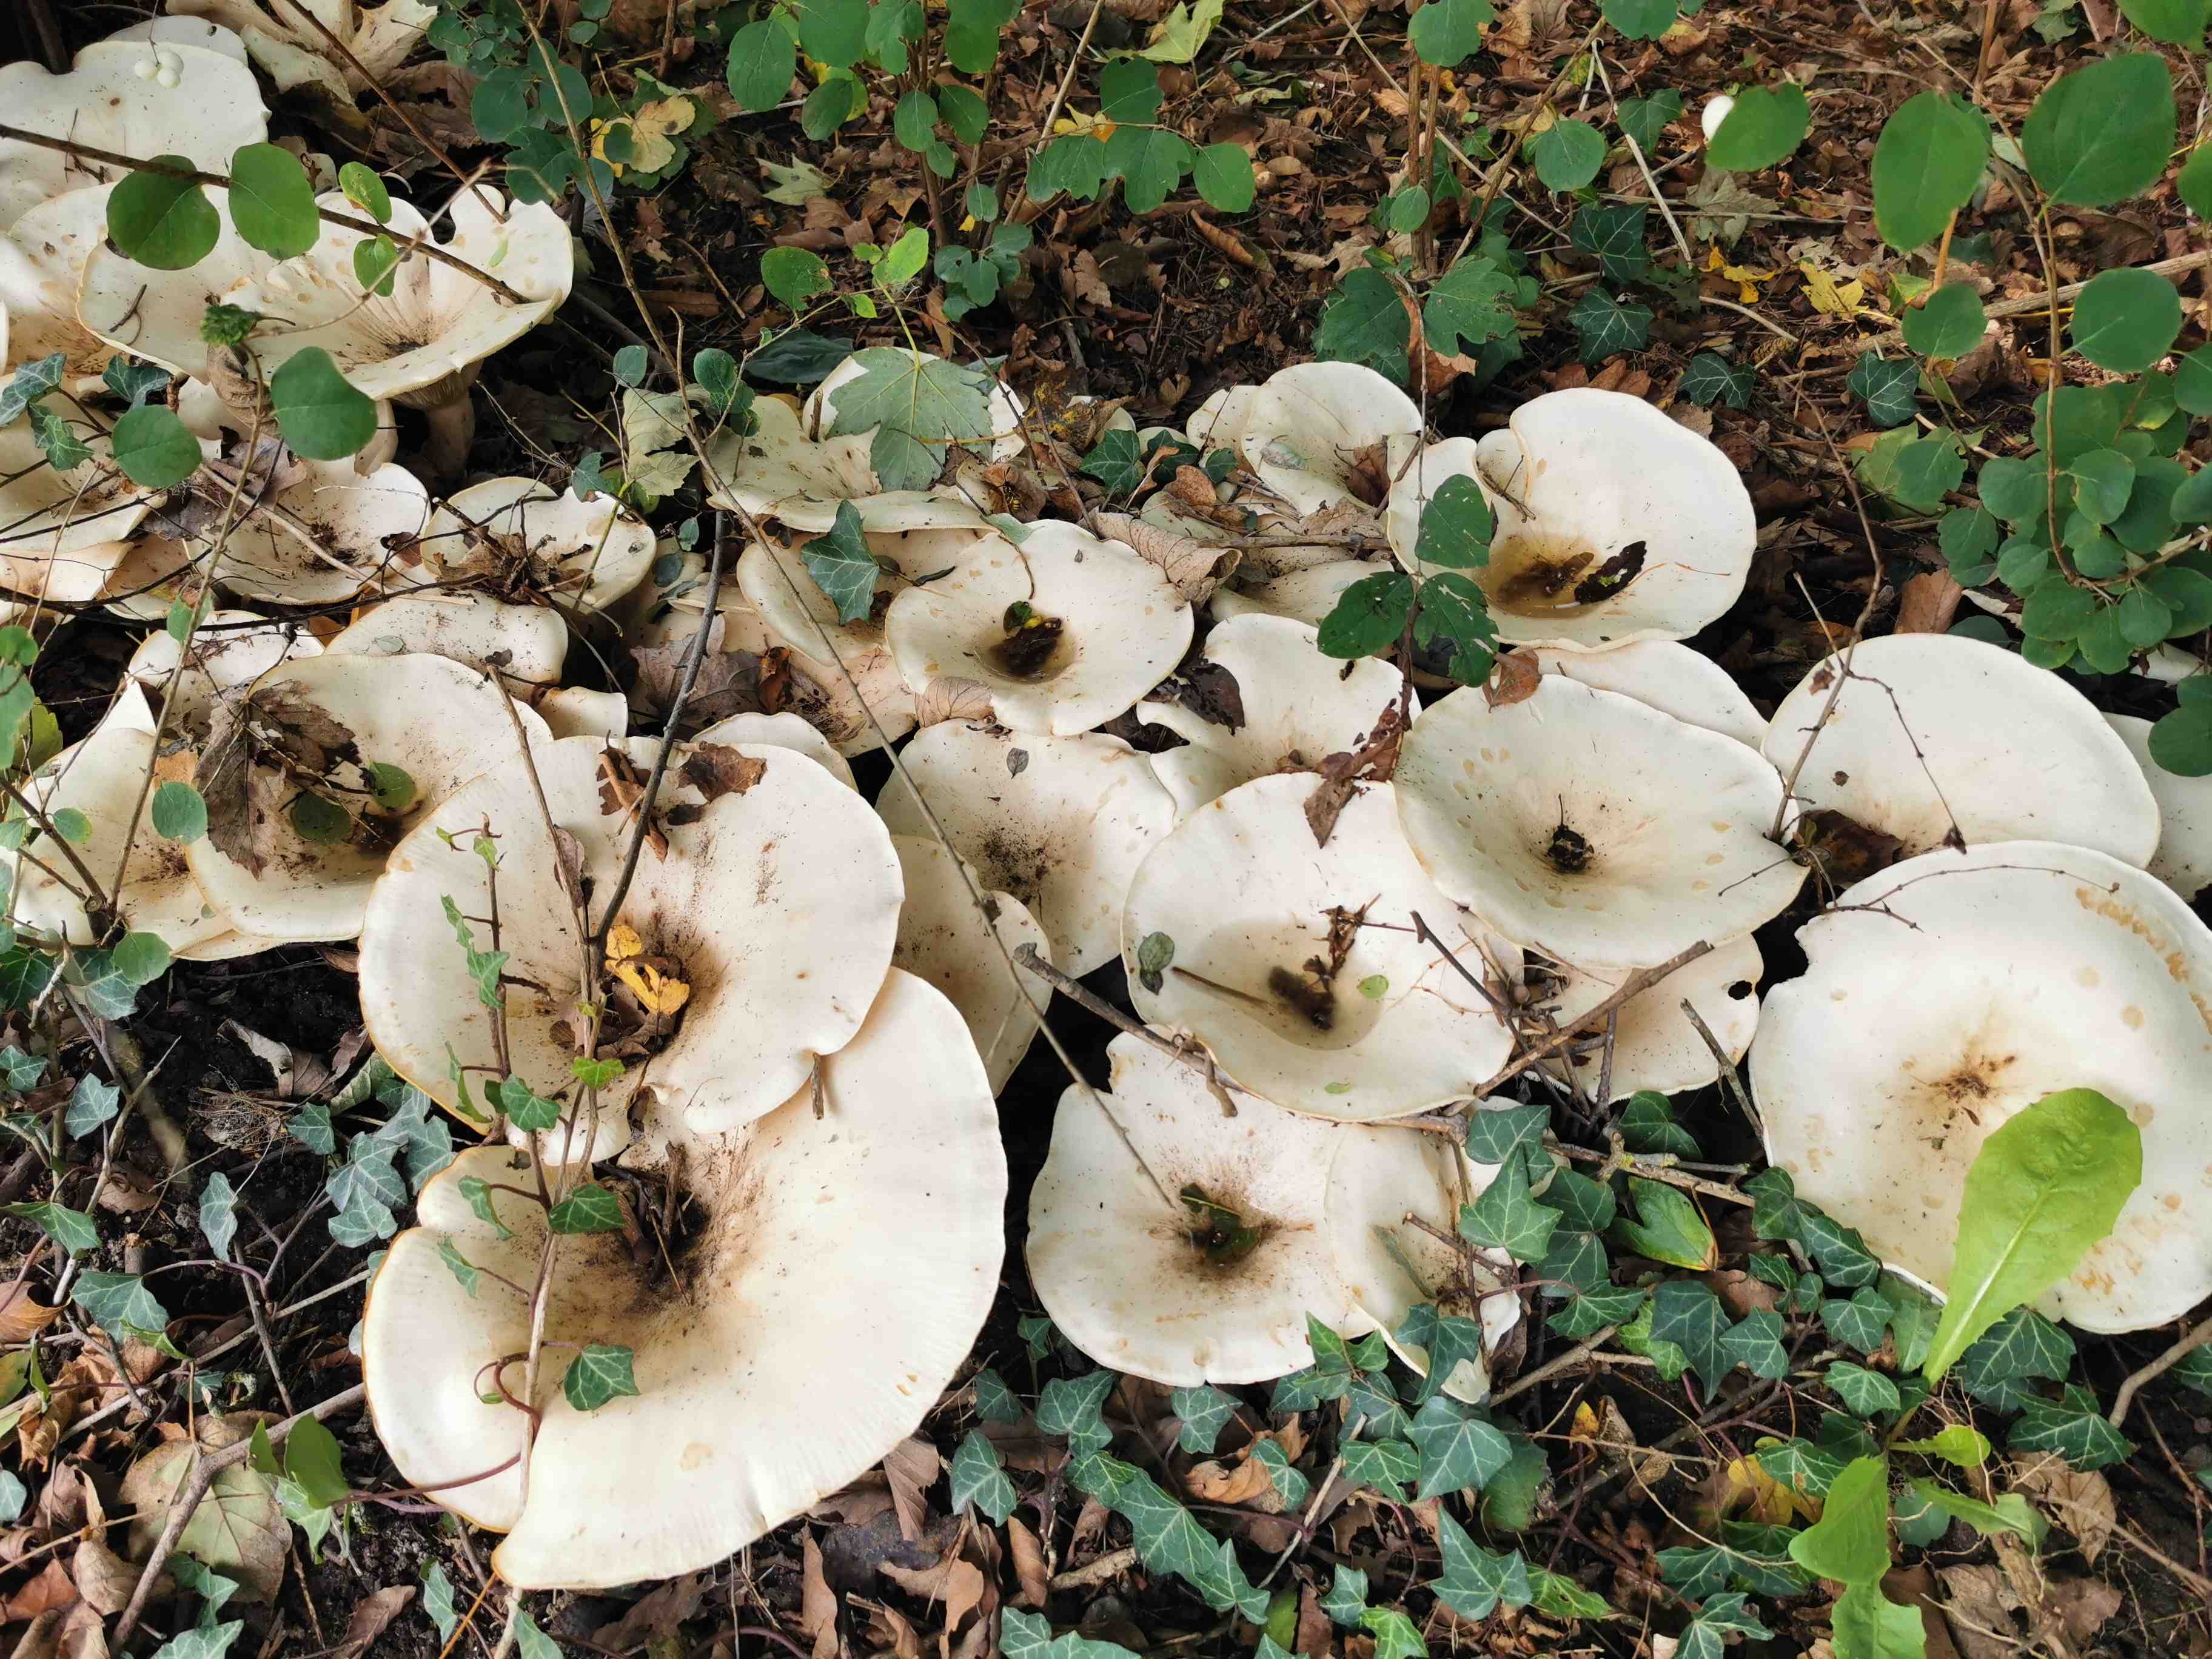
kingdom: Fungi
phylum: Basidiomycota
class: Agaricomycetes
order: Agaricales
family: Tricholomataceae
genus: Aspropaxillus
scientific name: Aspropaxillus giganteus
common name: kæmpe-tragtridderhat
